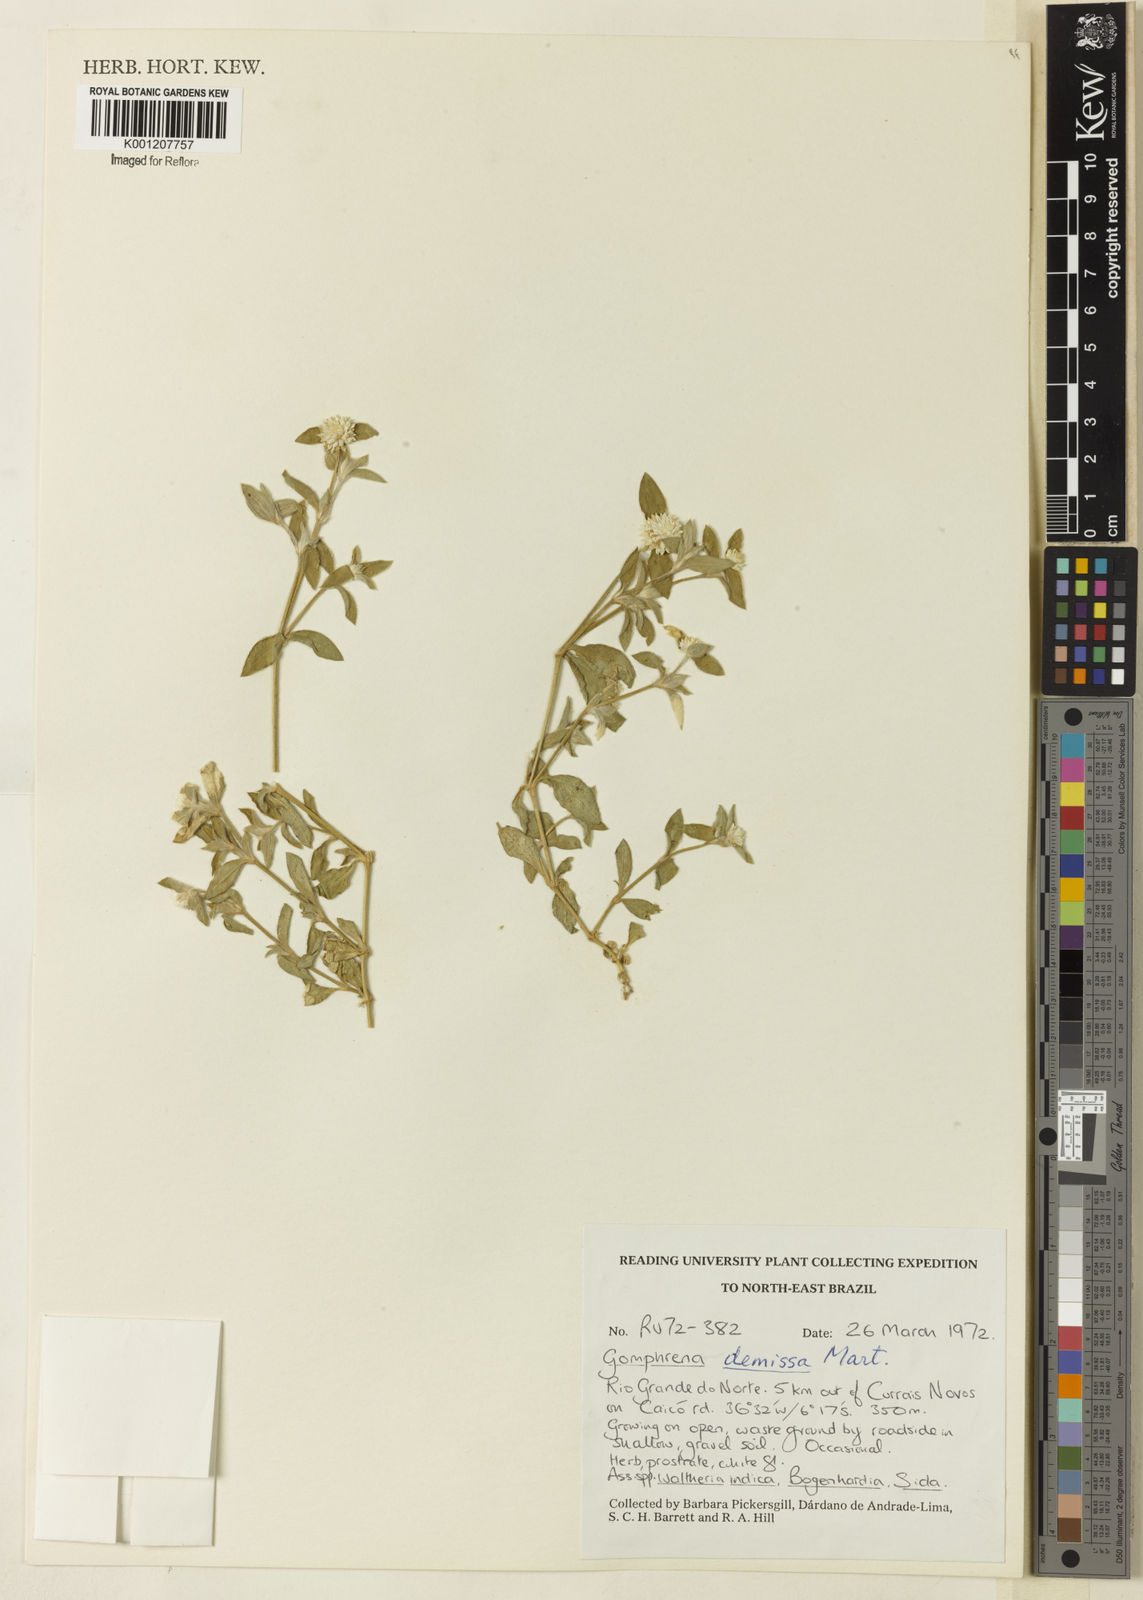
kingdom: Plantae
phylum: Tracheophyta
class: Magnoliopsida
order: Caryophyllales
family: Amaranthaceae
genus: Gomphrena
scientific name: Gomphrena demissa
